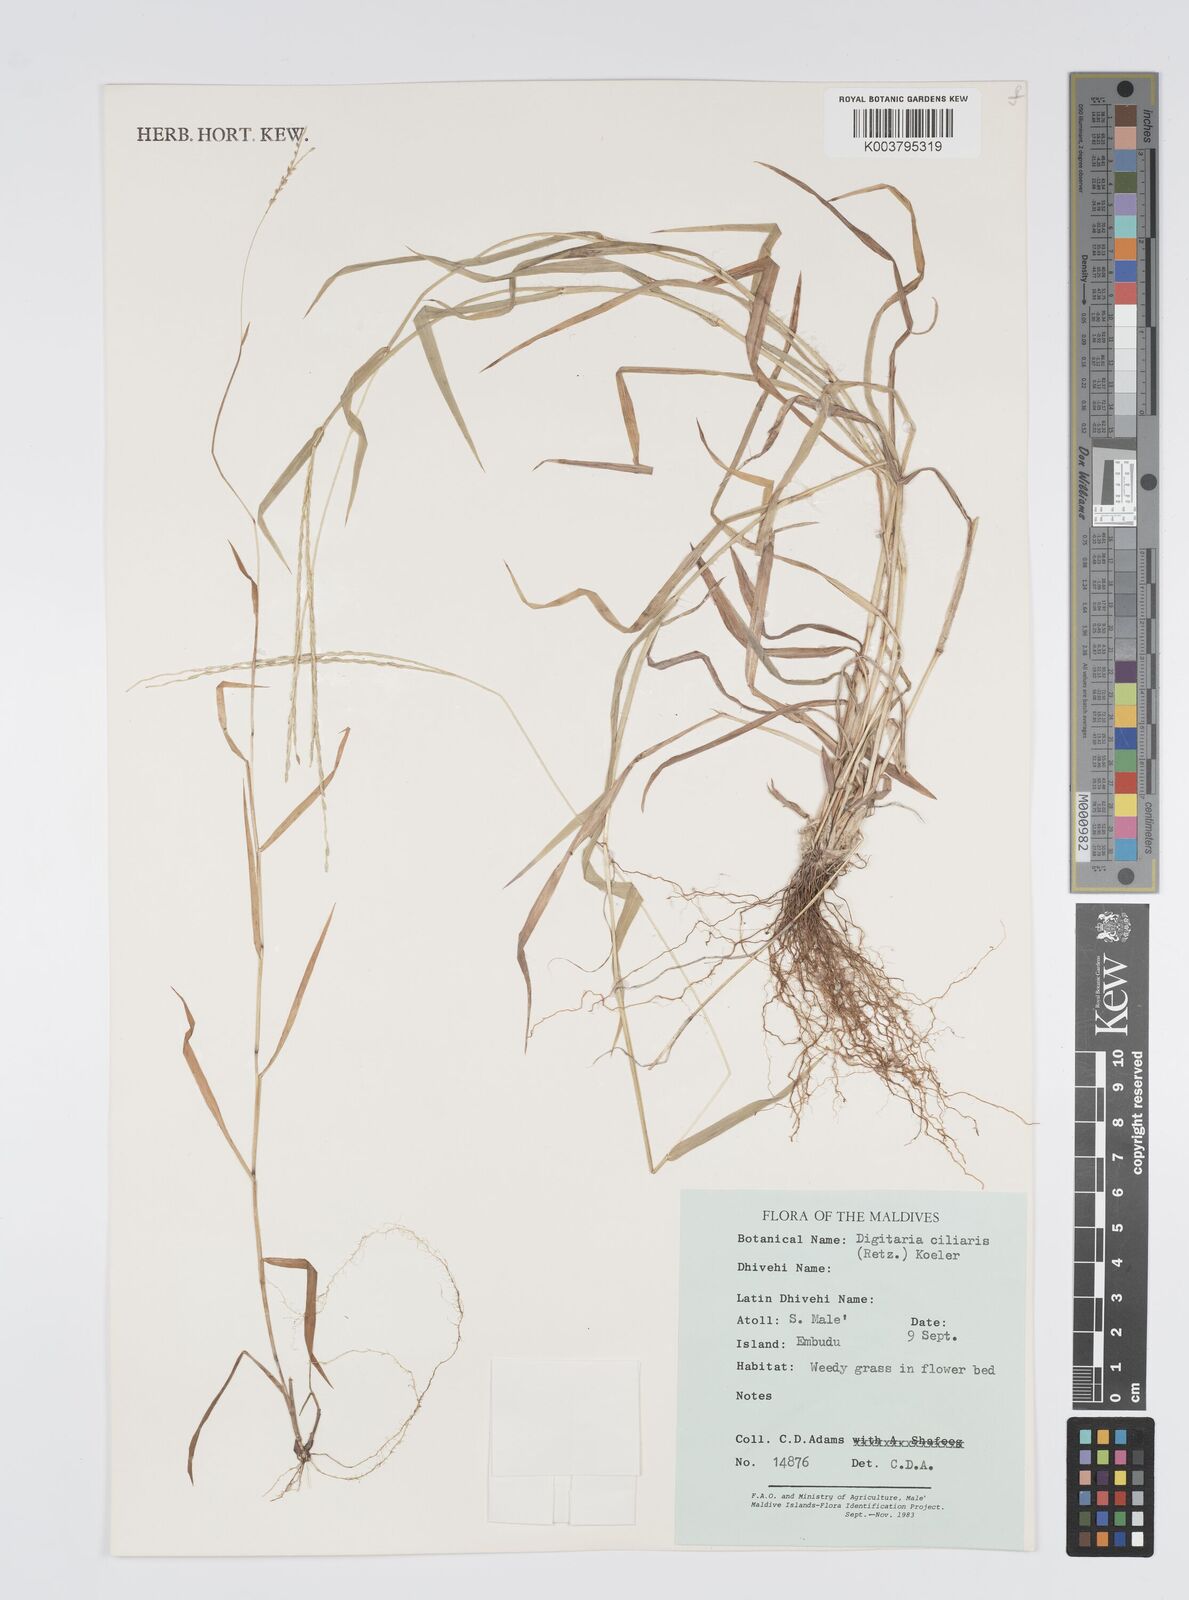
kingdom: Plantae
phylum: Tracheophyta
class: Liliopsida
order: Poales
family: Poaceae
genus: Digitaria
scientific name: Digitaria ciliaris
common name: Tropical finger-grass
